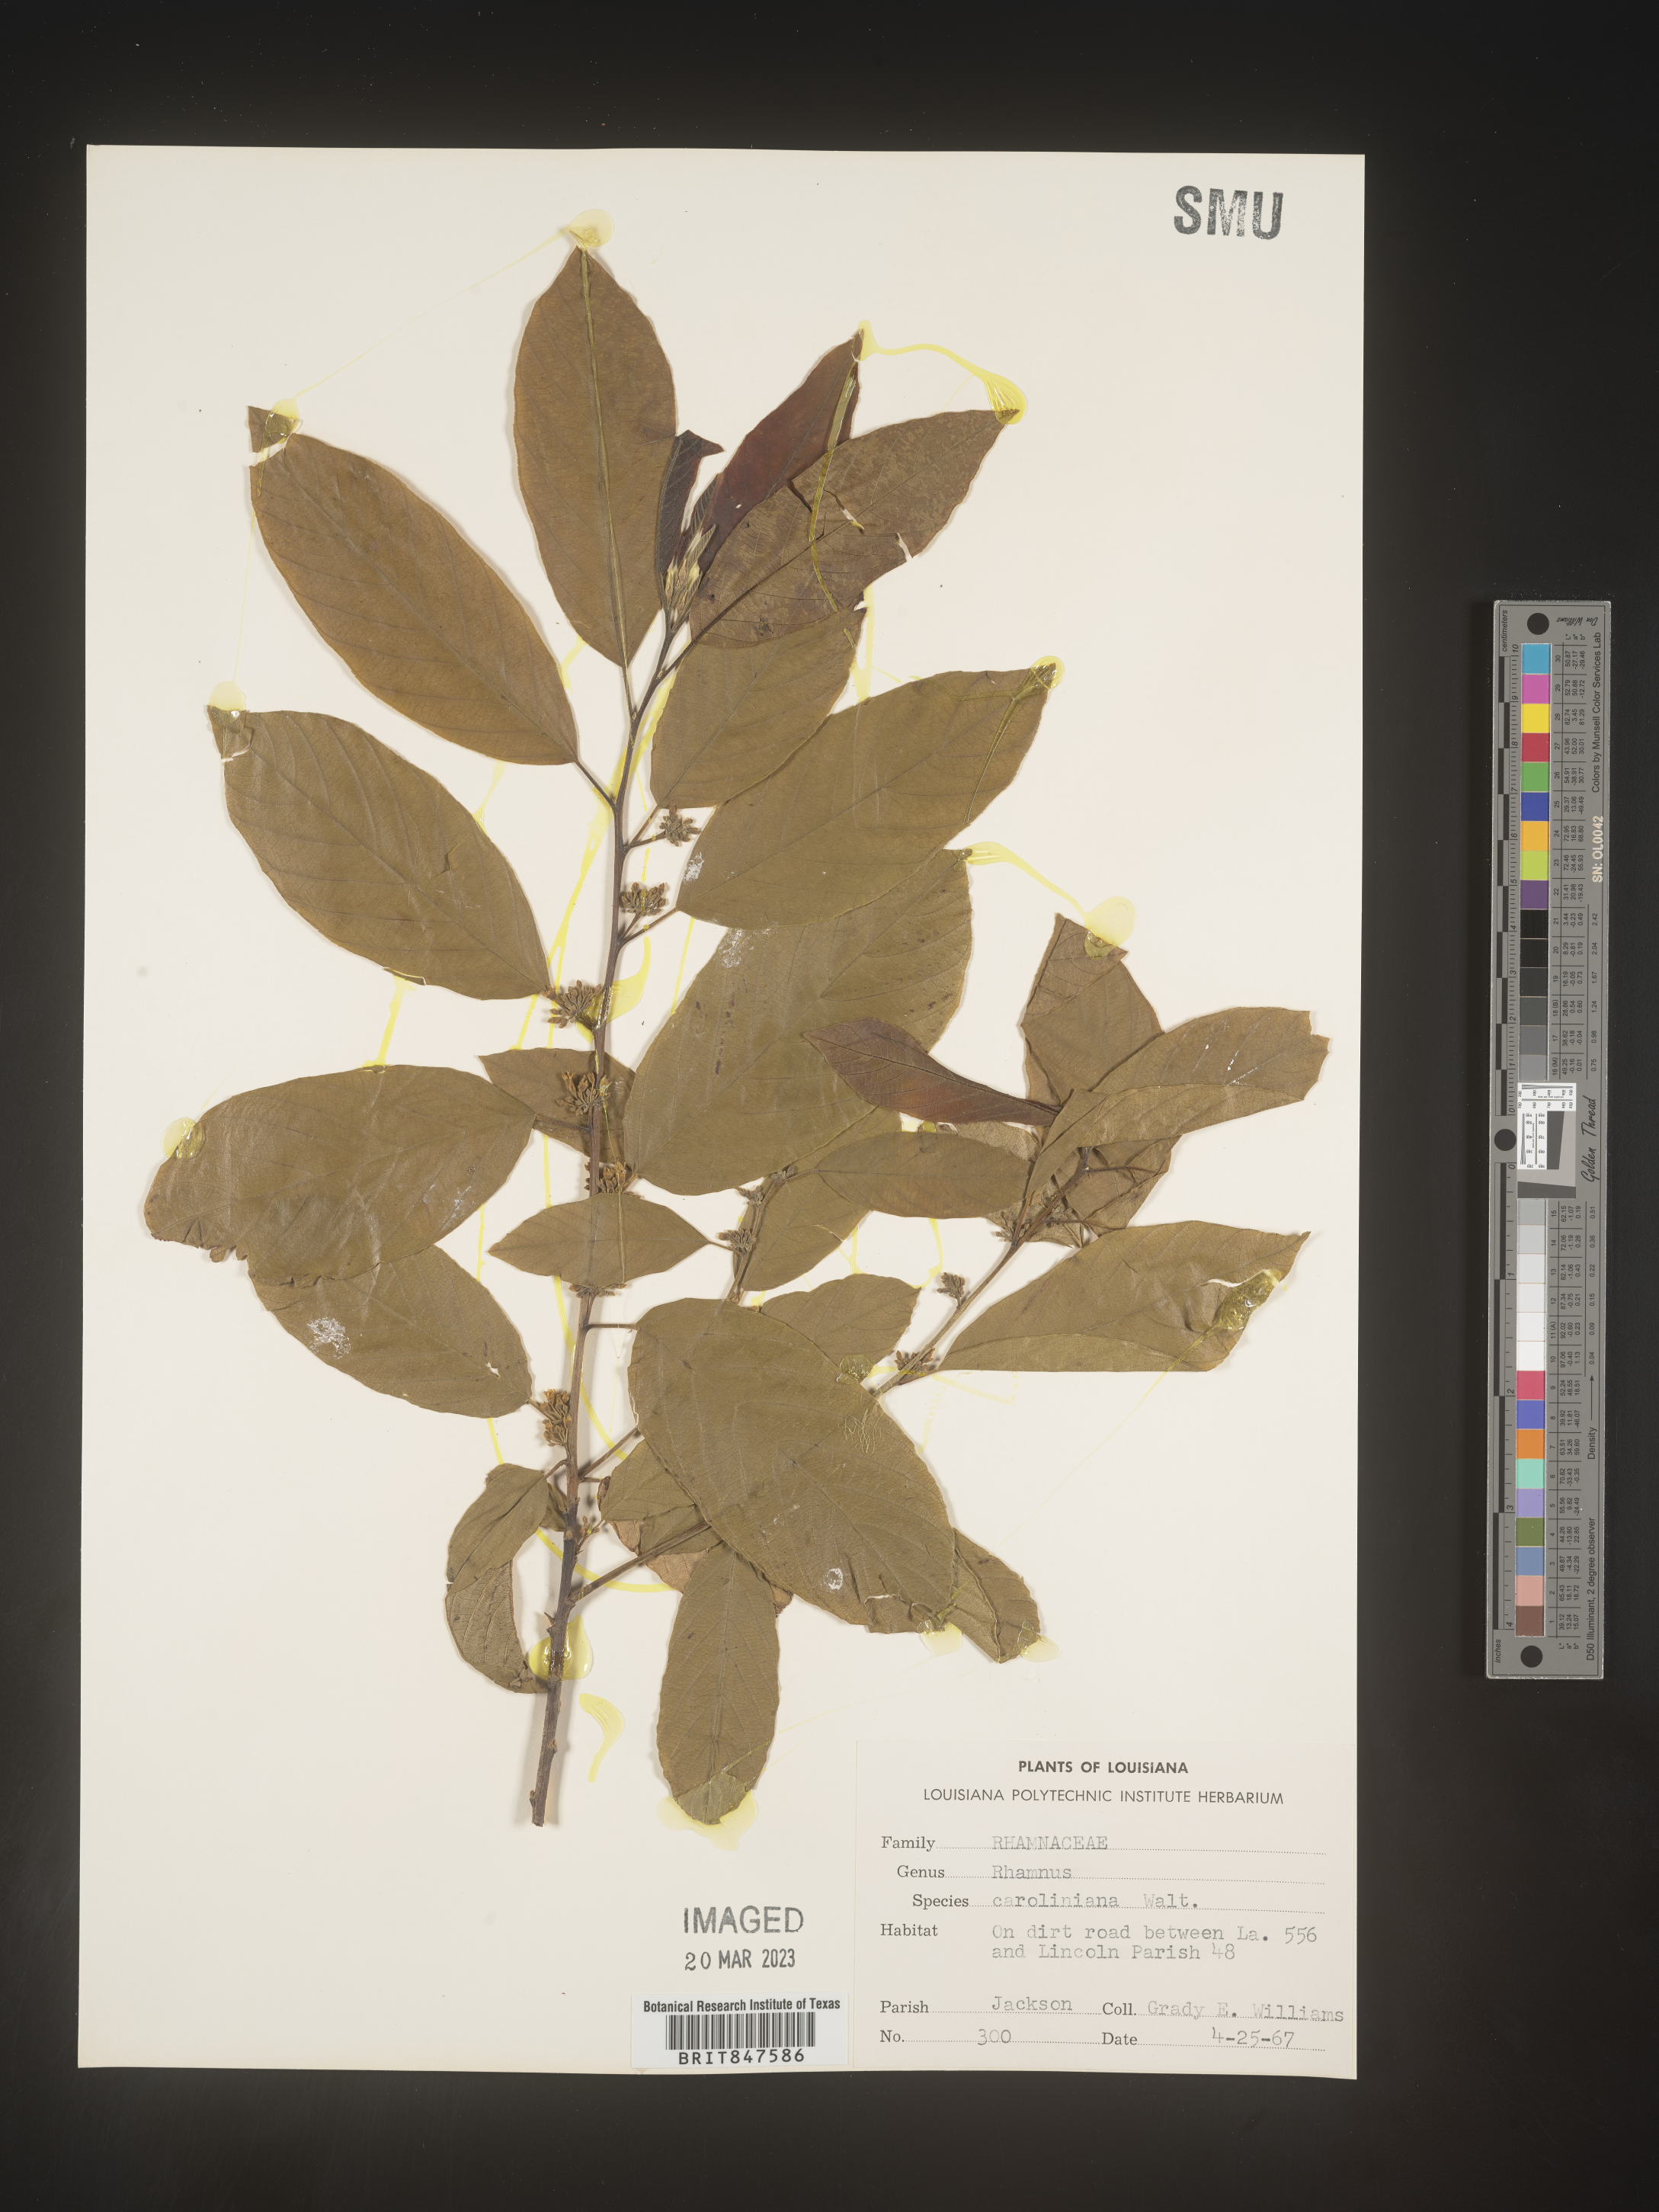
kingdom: Plantae
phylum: Tracheophyta
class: Magnoliopsida
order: Rosales
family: Rhamnaceae
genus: Frangula
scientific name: Frangula caroliniana
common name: Carolina buckthorn
